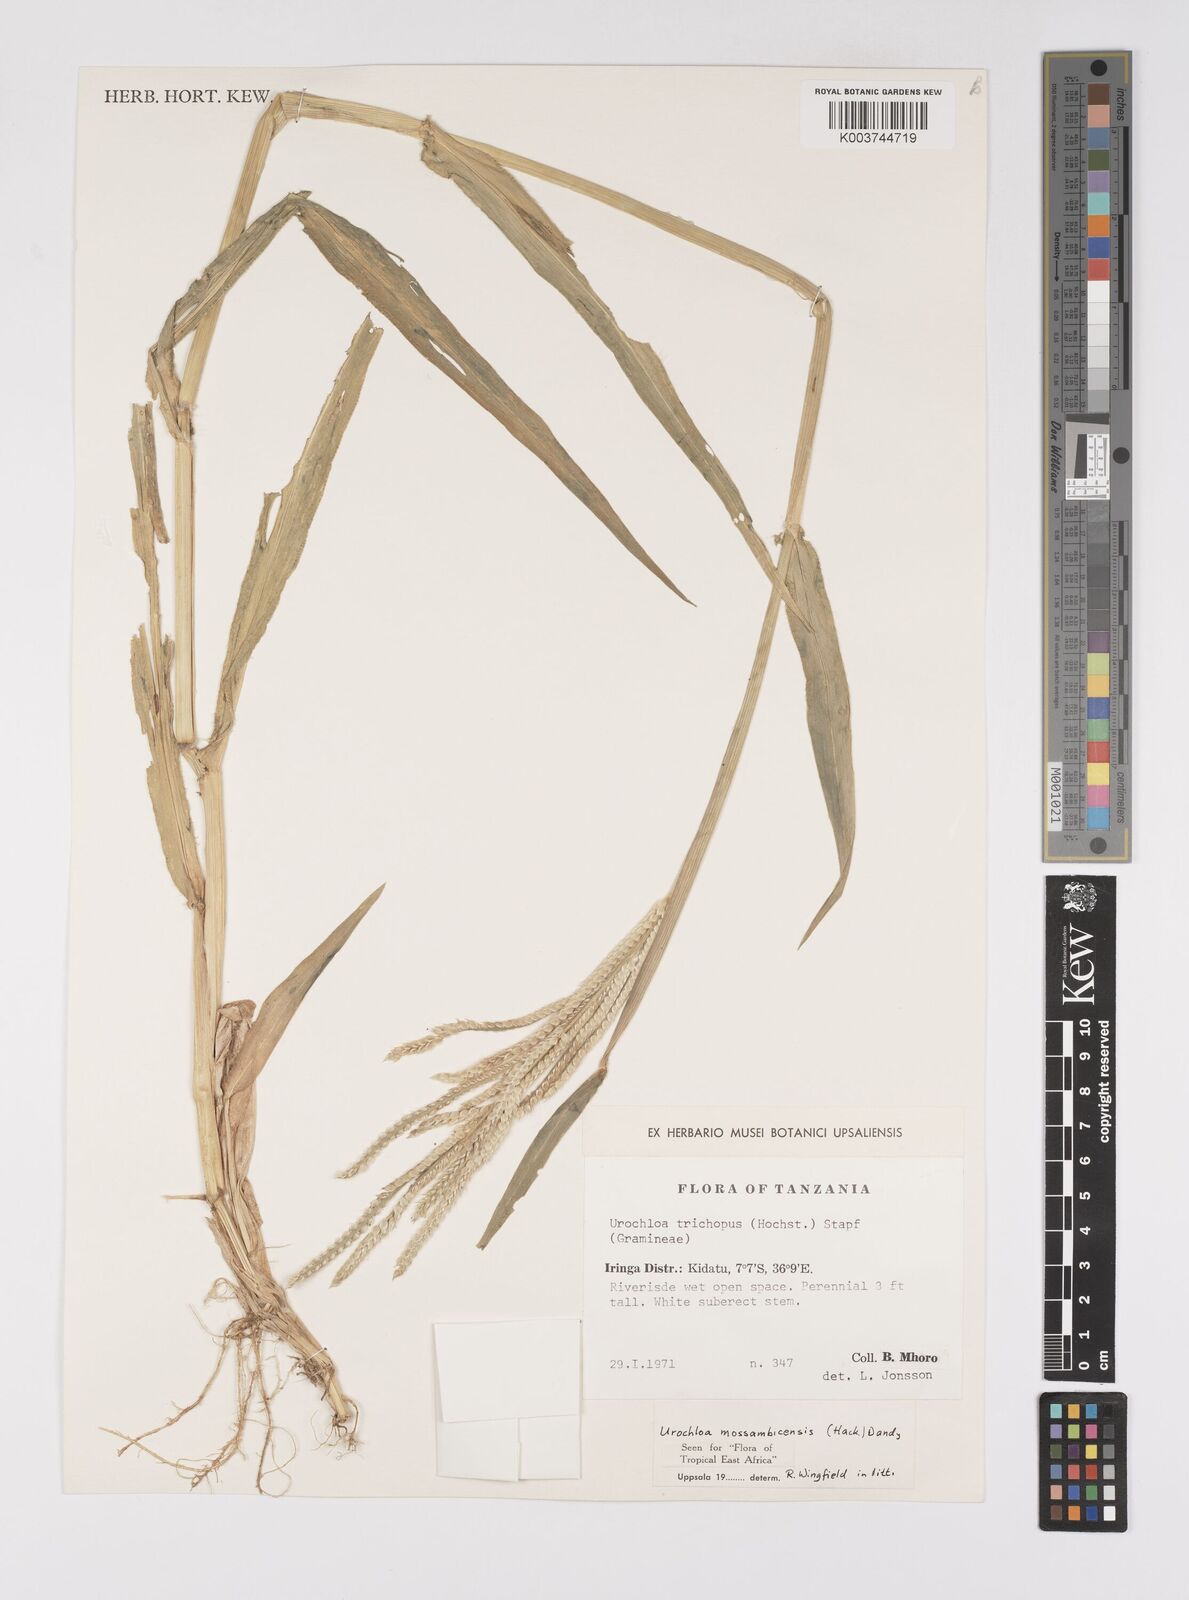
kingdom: Plantae
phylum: Tracheophyta
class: Liliopsida
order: Poales
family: Poaceae
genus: Urochloa
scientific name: Urochloa trichopus
